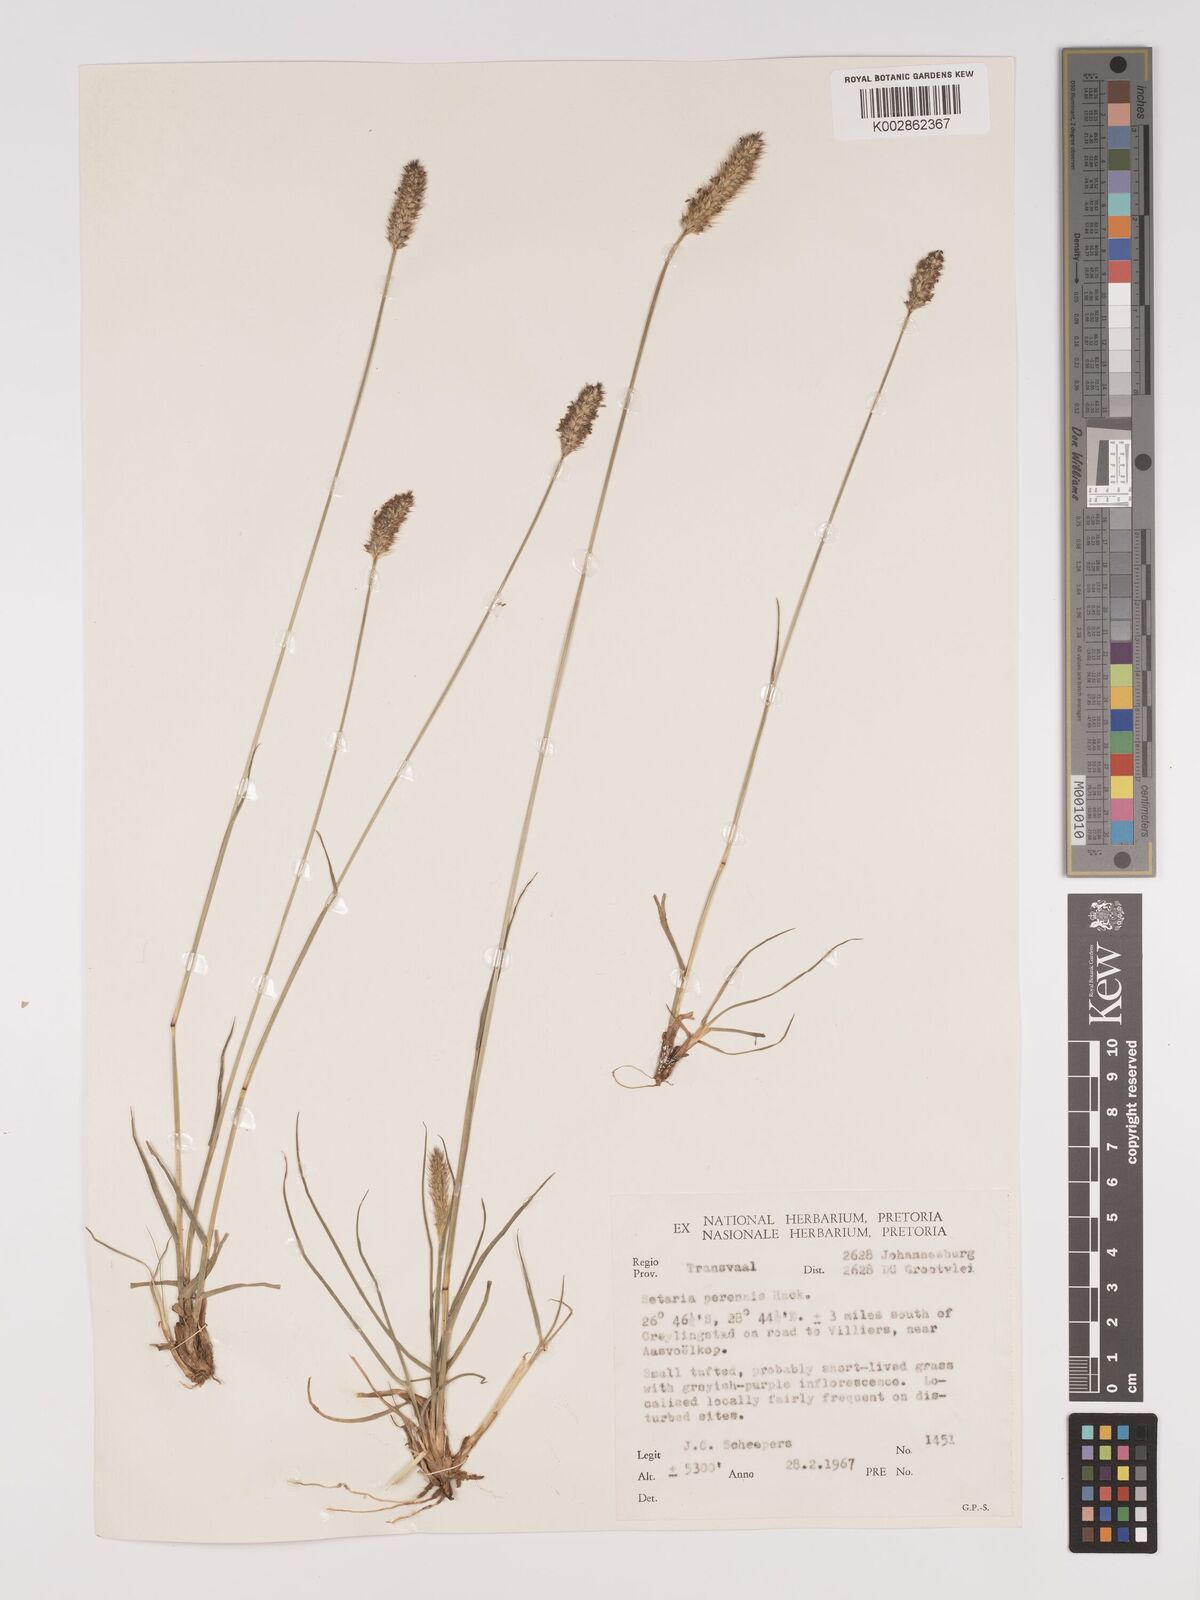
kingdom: Plantae
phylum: Tracheophyta
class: Liliopsida
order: Poales
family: Poaceae
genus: Setaria
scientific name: Setaria
